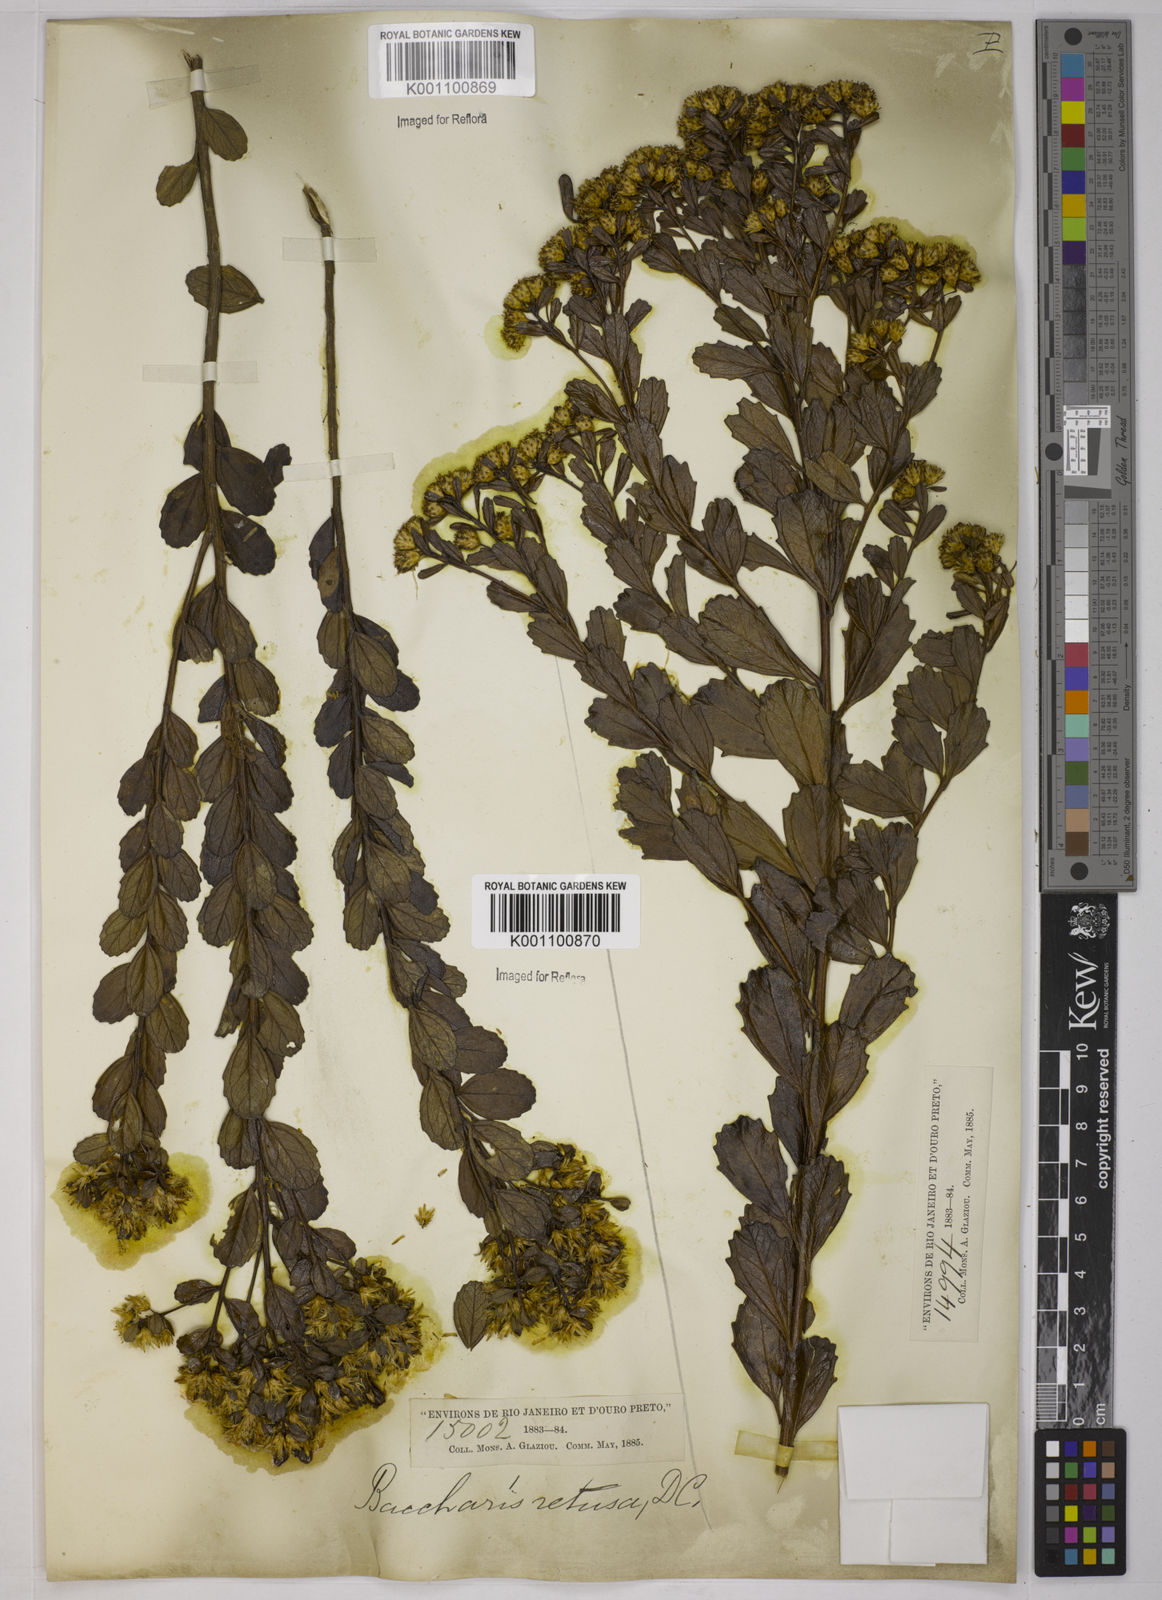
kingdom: Plantae
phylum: Tracheophyta
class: Magnoliopsida
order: Asterales
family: Asteraceae
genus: Baccharis
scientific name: Baccharis retusa
